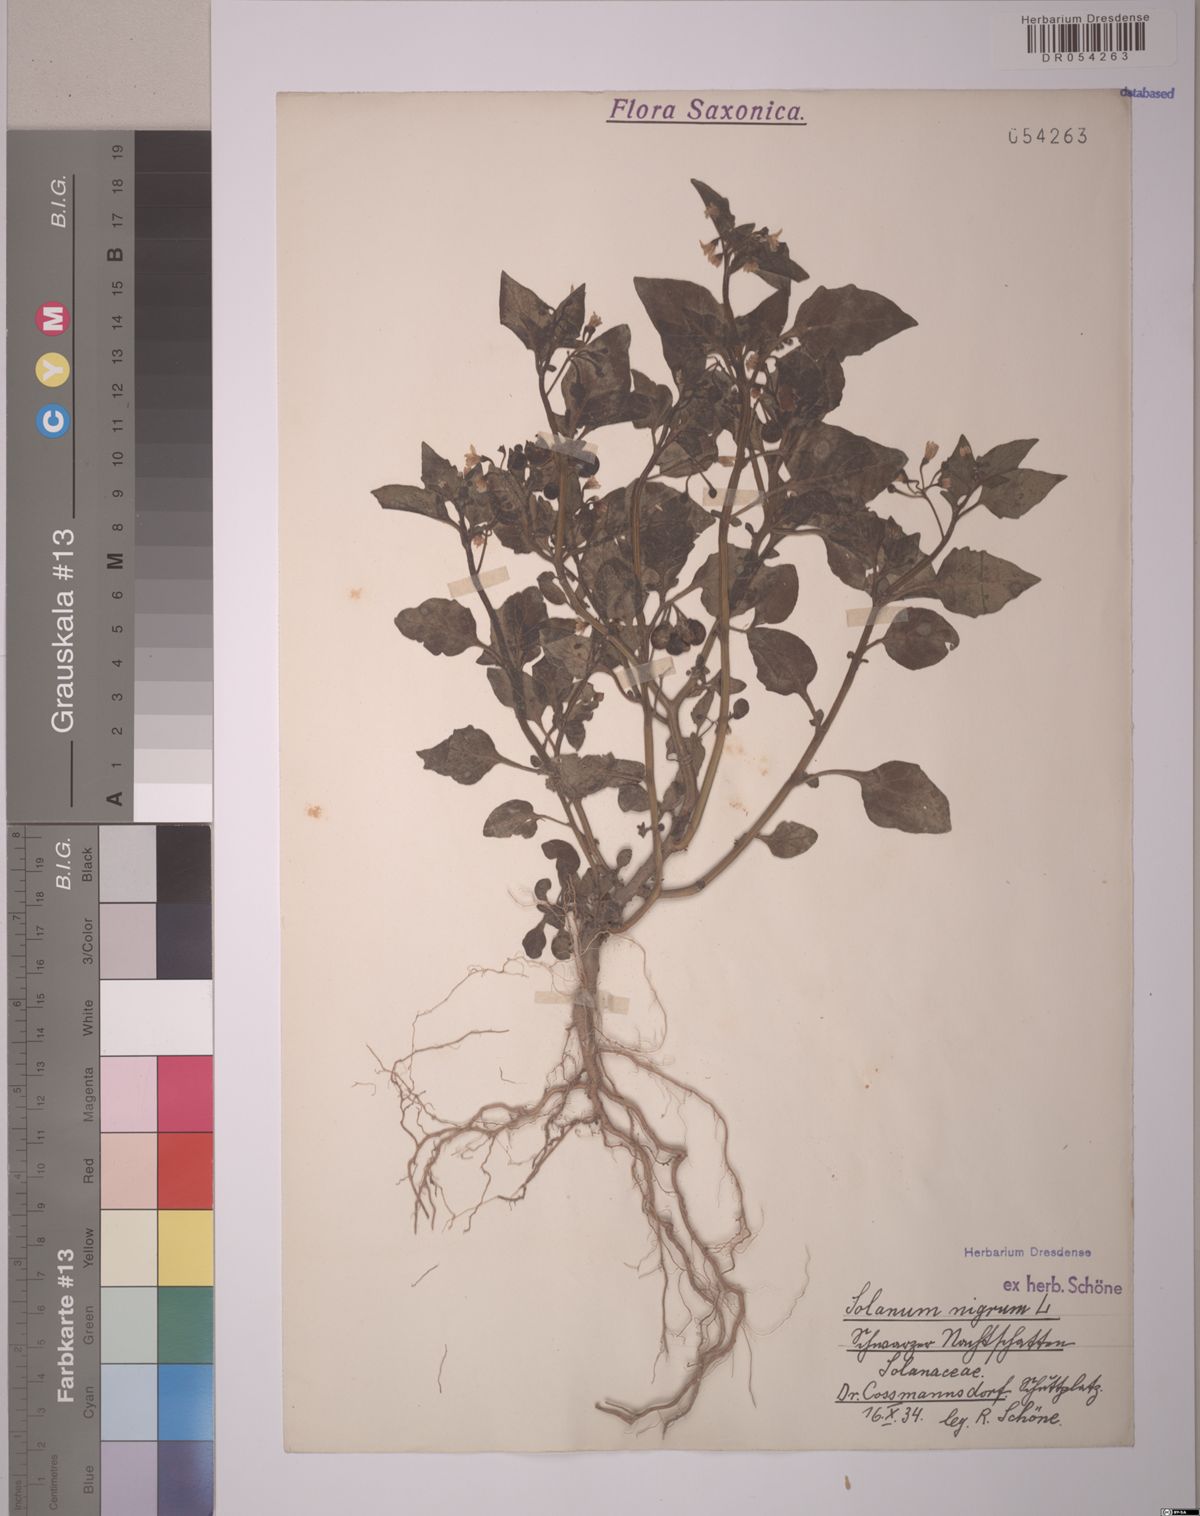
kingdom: Plantae
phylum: Tracheophyta
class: Magnoliopsida
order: Solanales
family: Solanaceae
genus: Solanum
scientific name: Solanum nigrum
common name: Black nightshade
